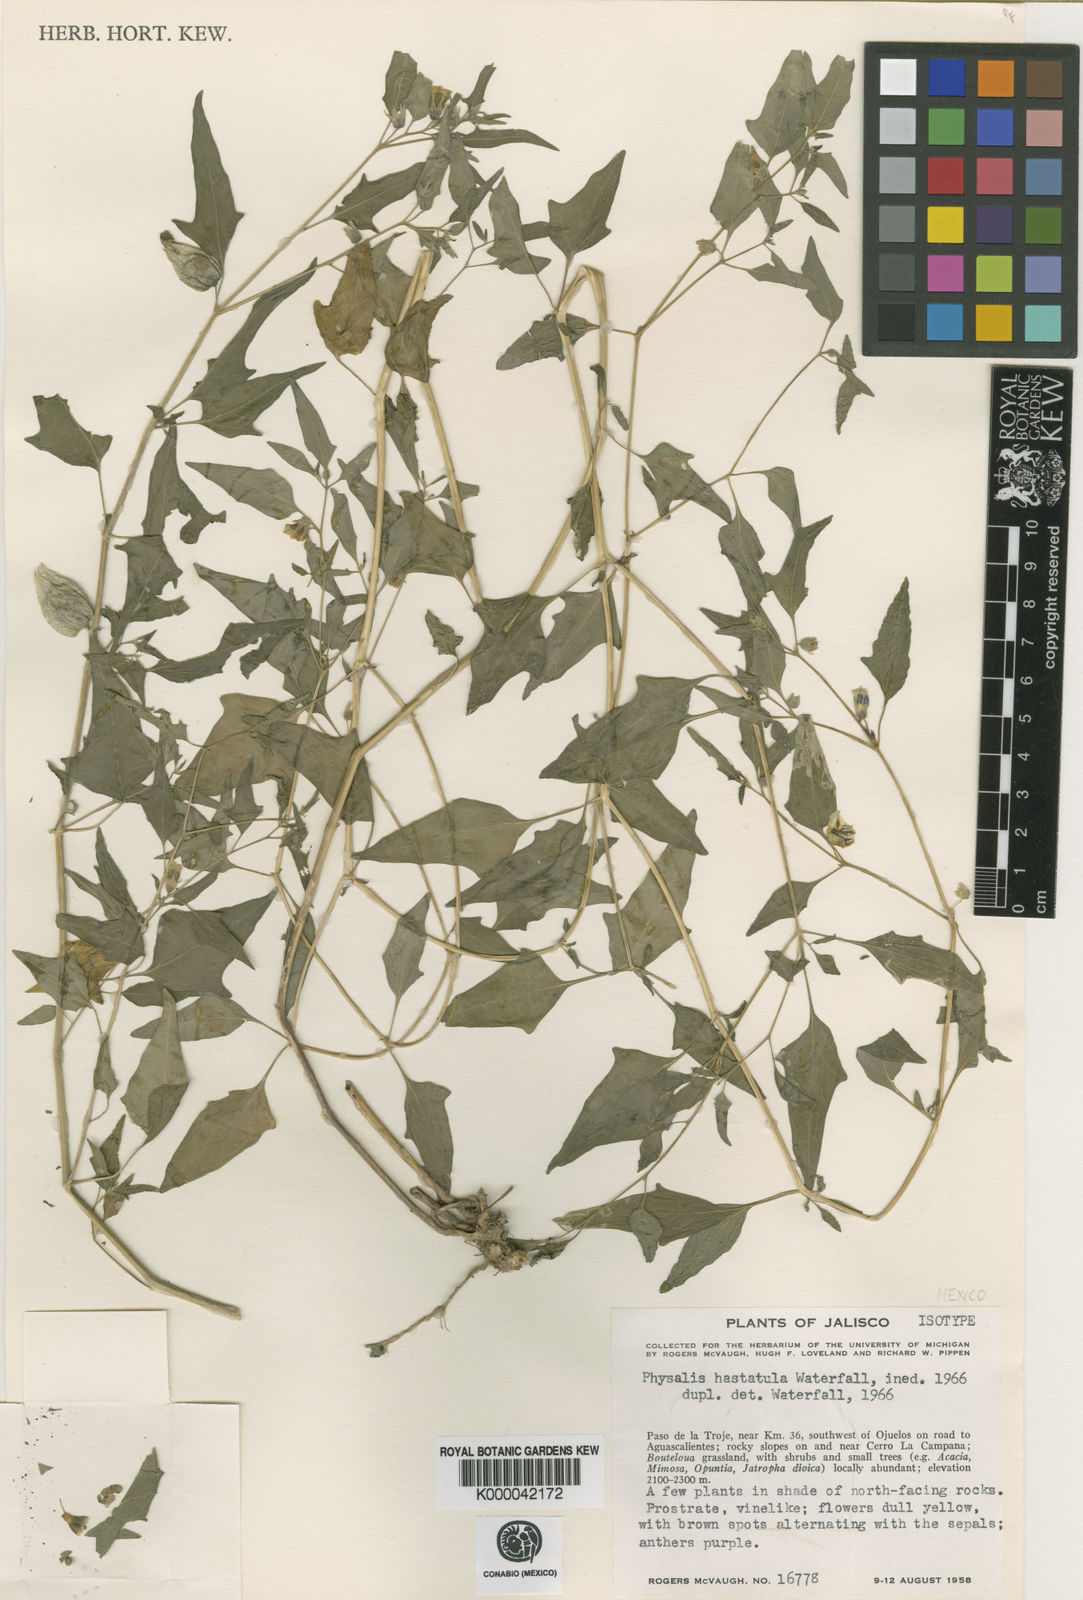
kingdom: Plantae
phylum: Tracheophyta
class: Magnoliopsida
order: Solanales
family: Solanaceae
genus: Physalis
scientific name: Physalis hastatula
